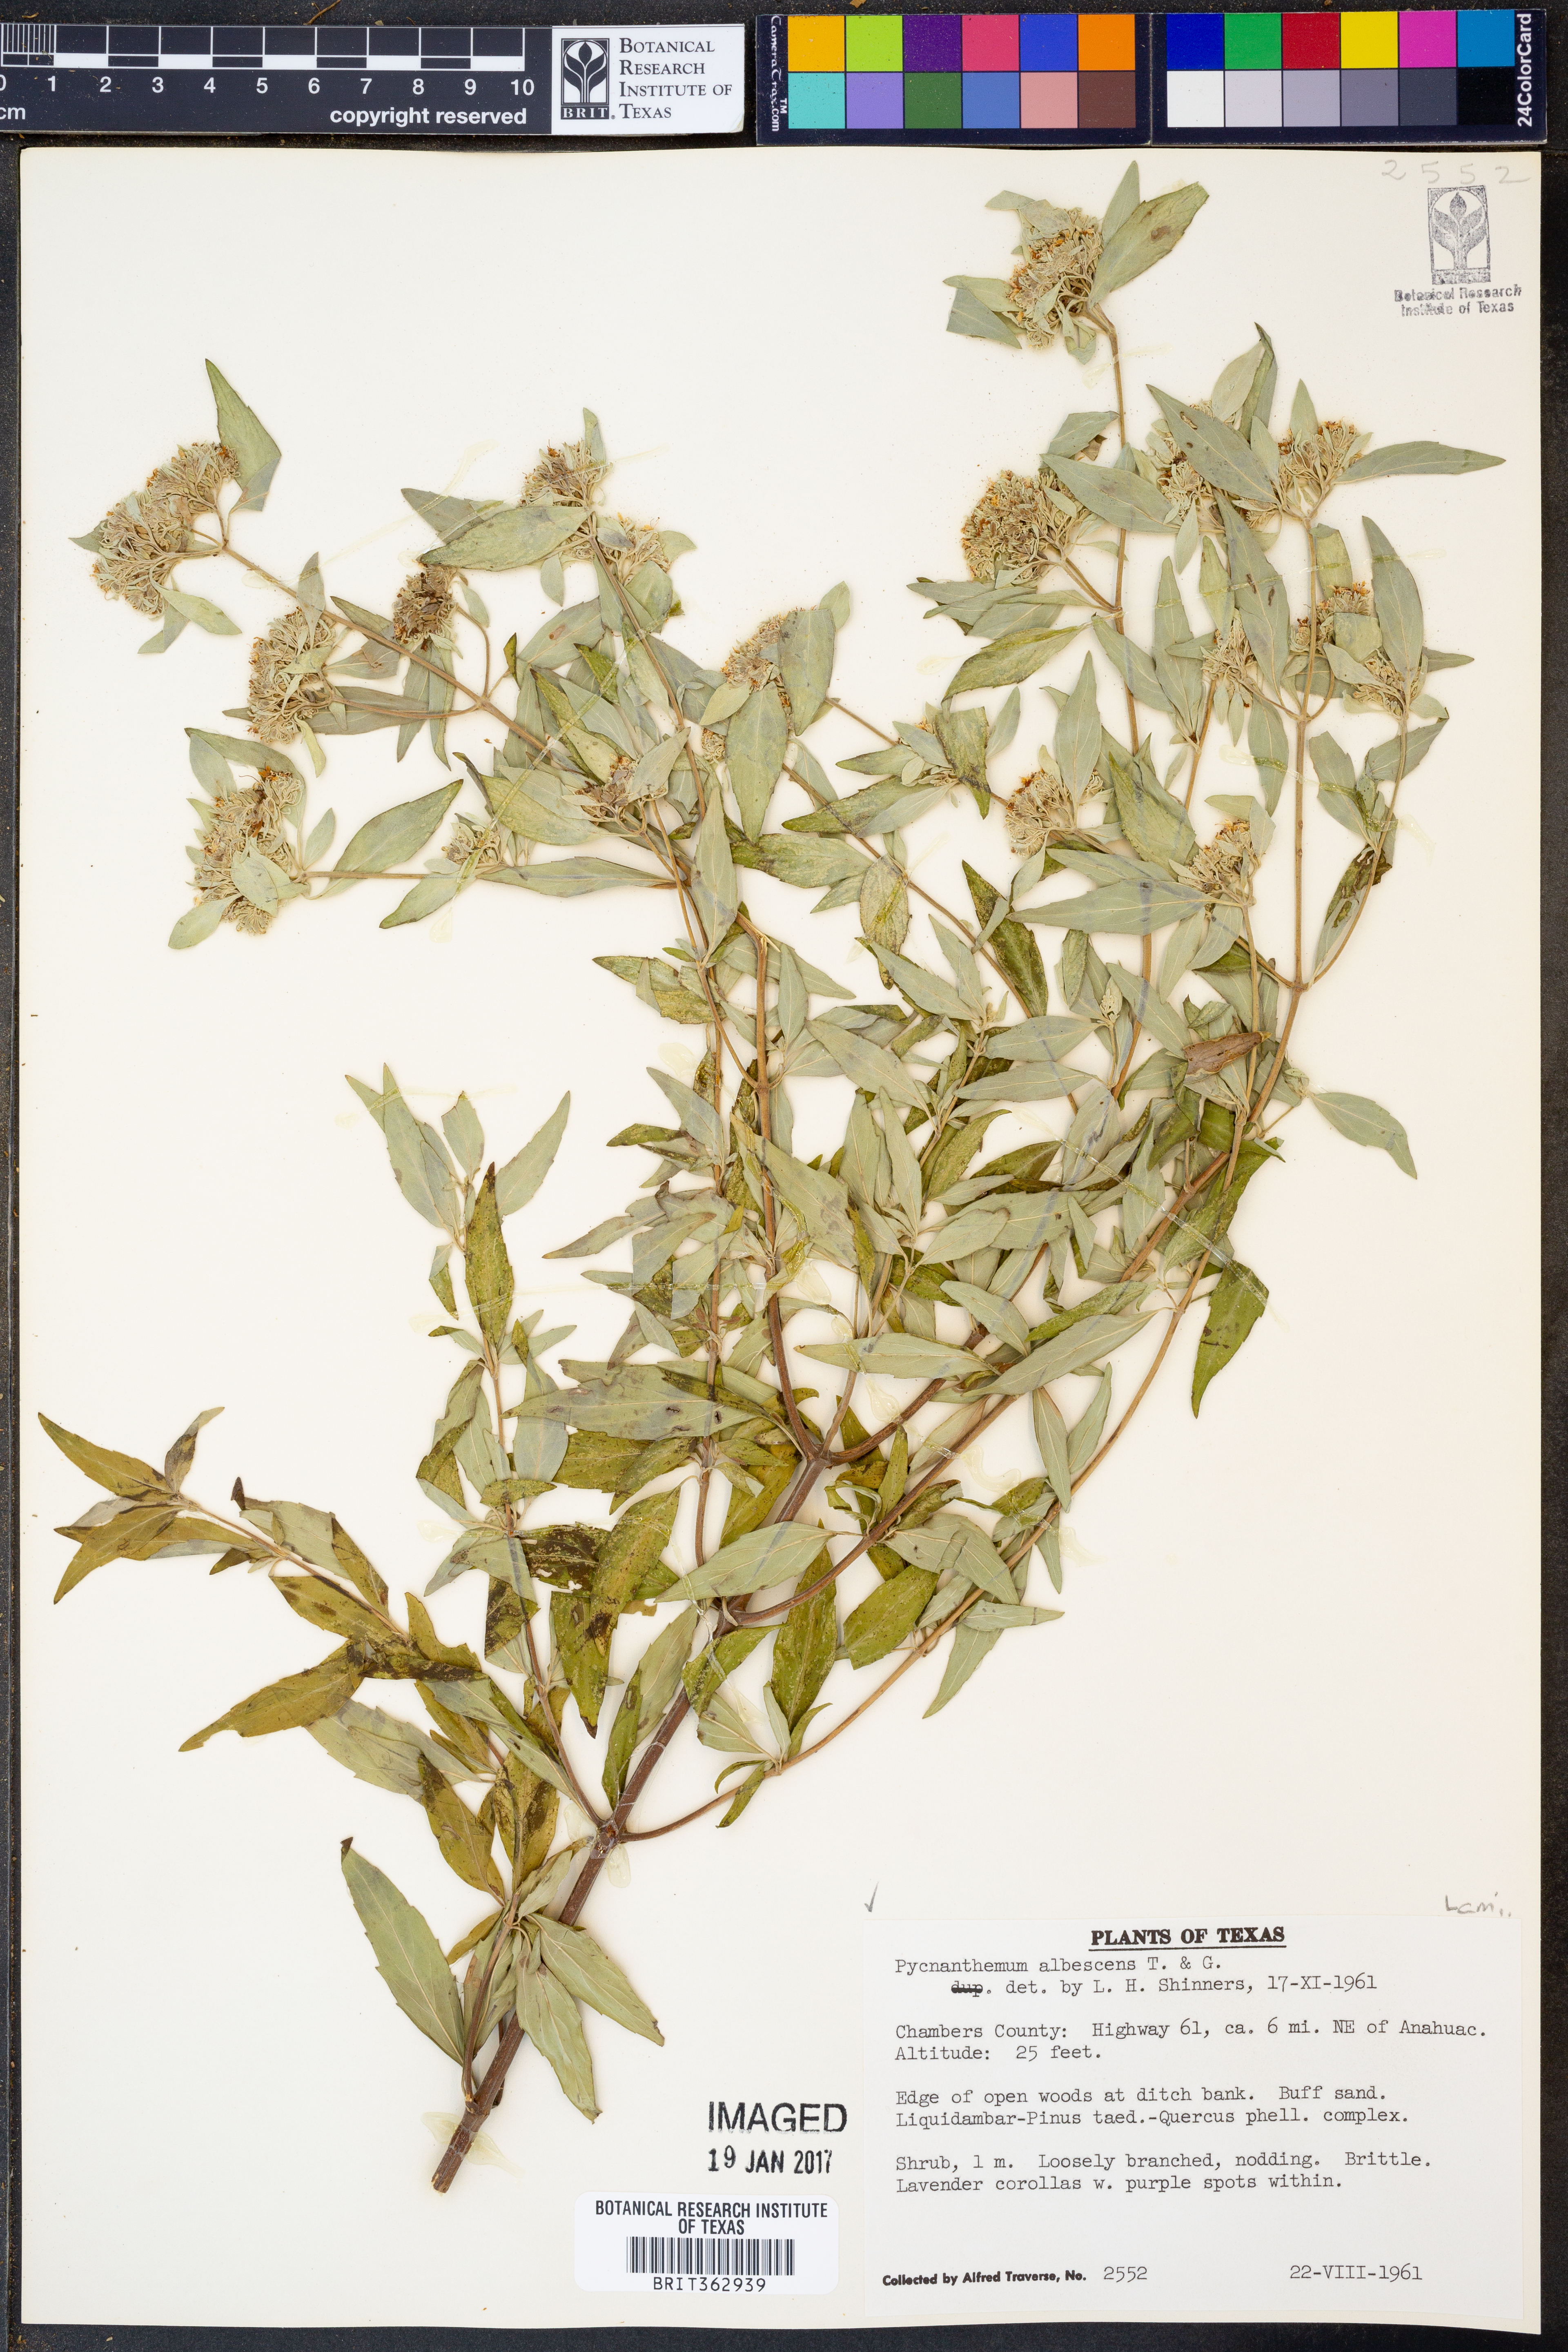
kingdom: Plantae
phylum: Tracheophyta
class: Magnoliopsida
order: Lamiales
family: Lamiaceae
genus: Pycnanthemum
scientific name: Pycnanthemum albescens
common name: White-leaf mountain-mint
